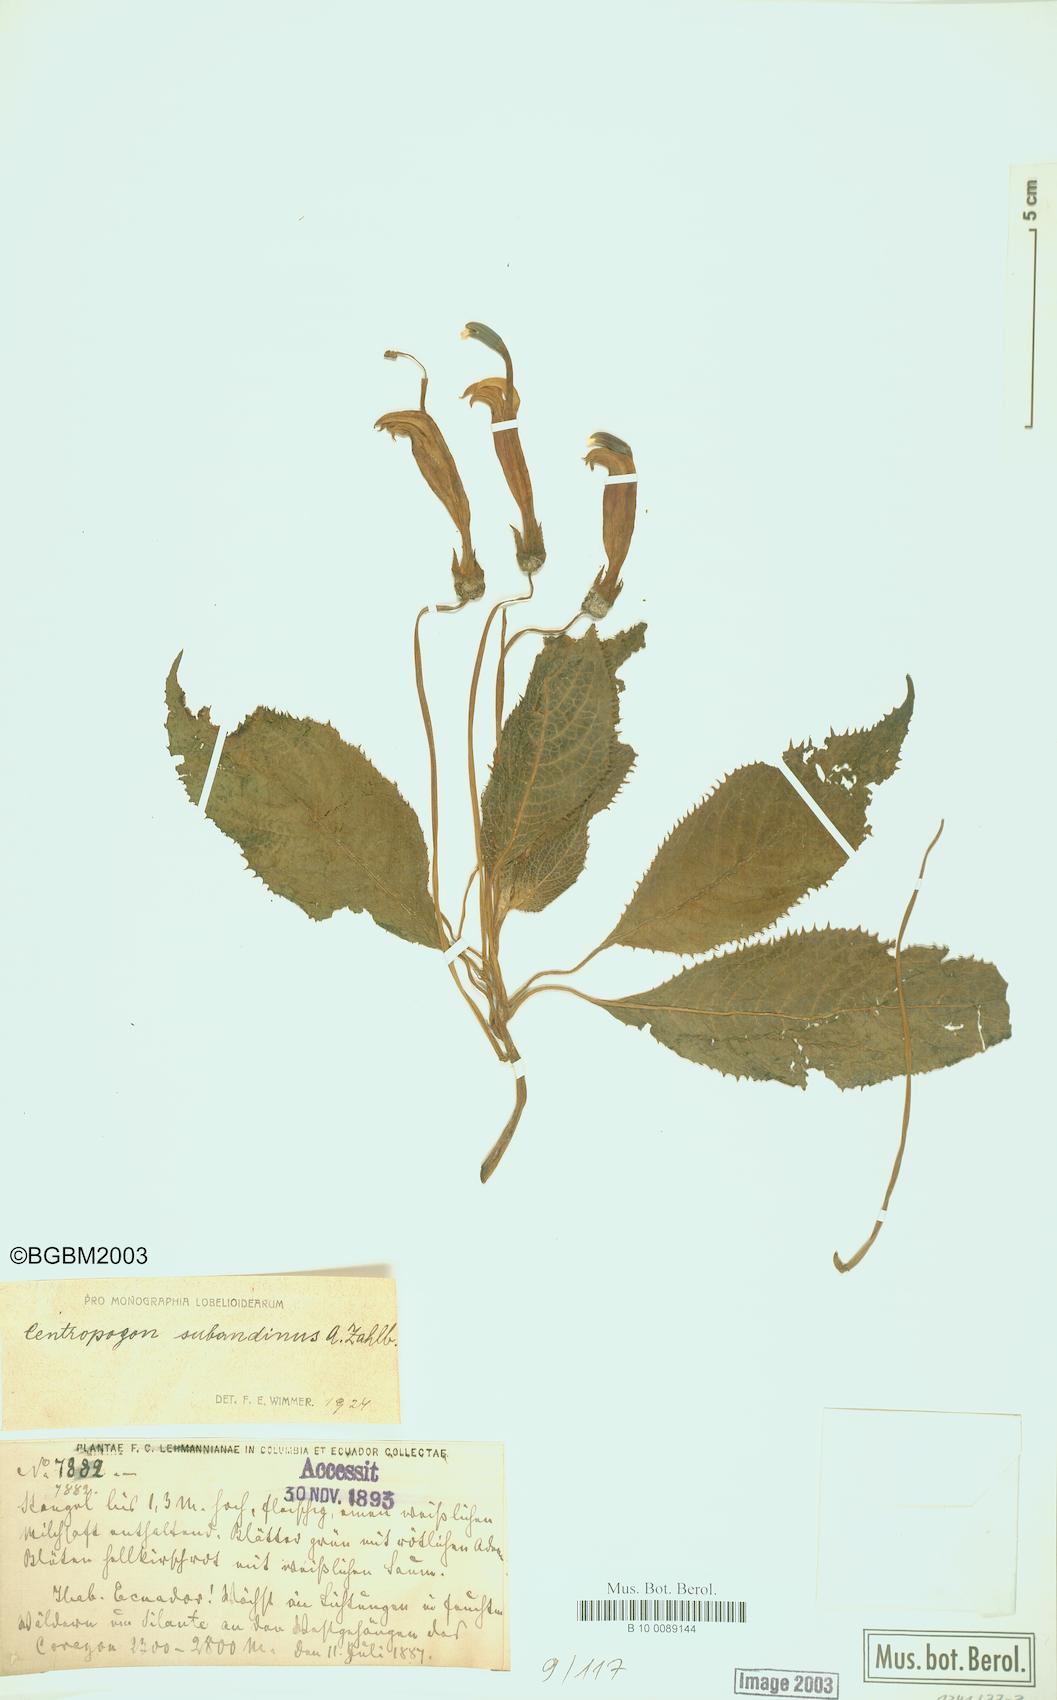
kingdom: Plantae
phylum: Tracheophyta
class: Magnoliopsida
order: Asterales
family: Campanulaceae
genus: Centropogon
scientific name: Centropogon subandinus
